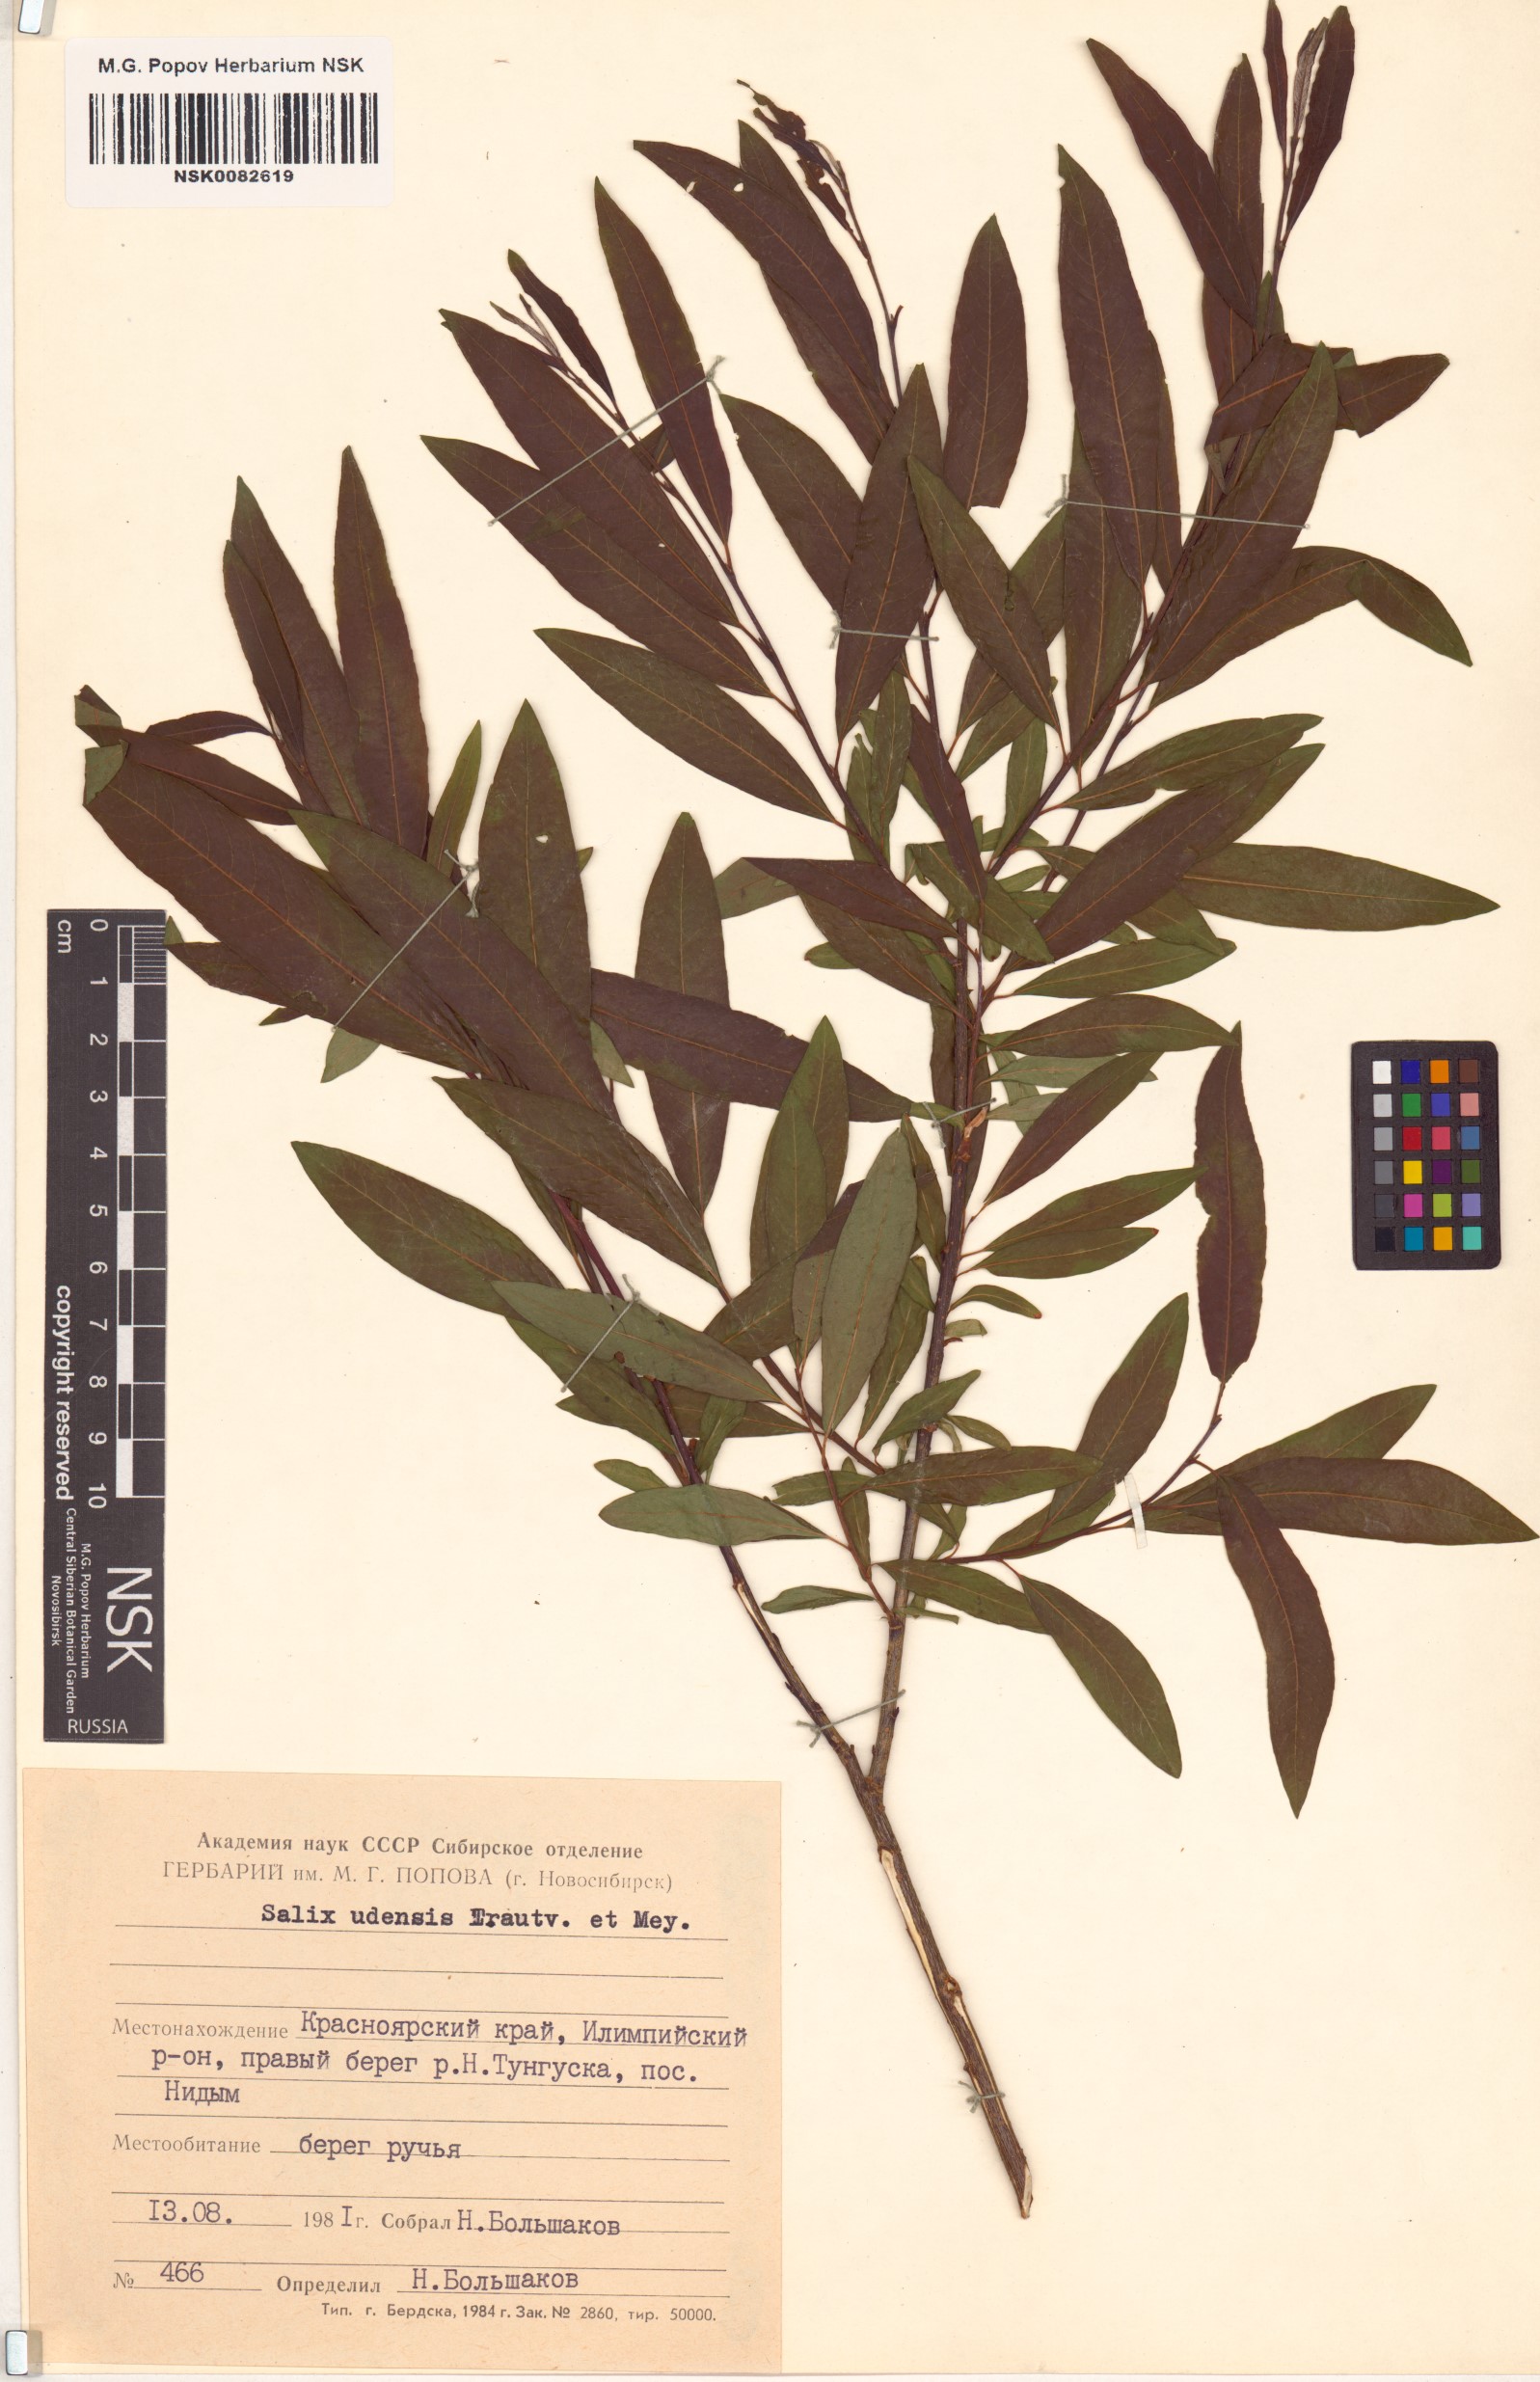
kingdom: Plantae
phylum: Tracheophyta
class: Magnoliopsida
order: Malpighiales
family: Salicaceae
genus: Salix
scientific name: Salix udensis
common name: Sachalin willow
